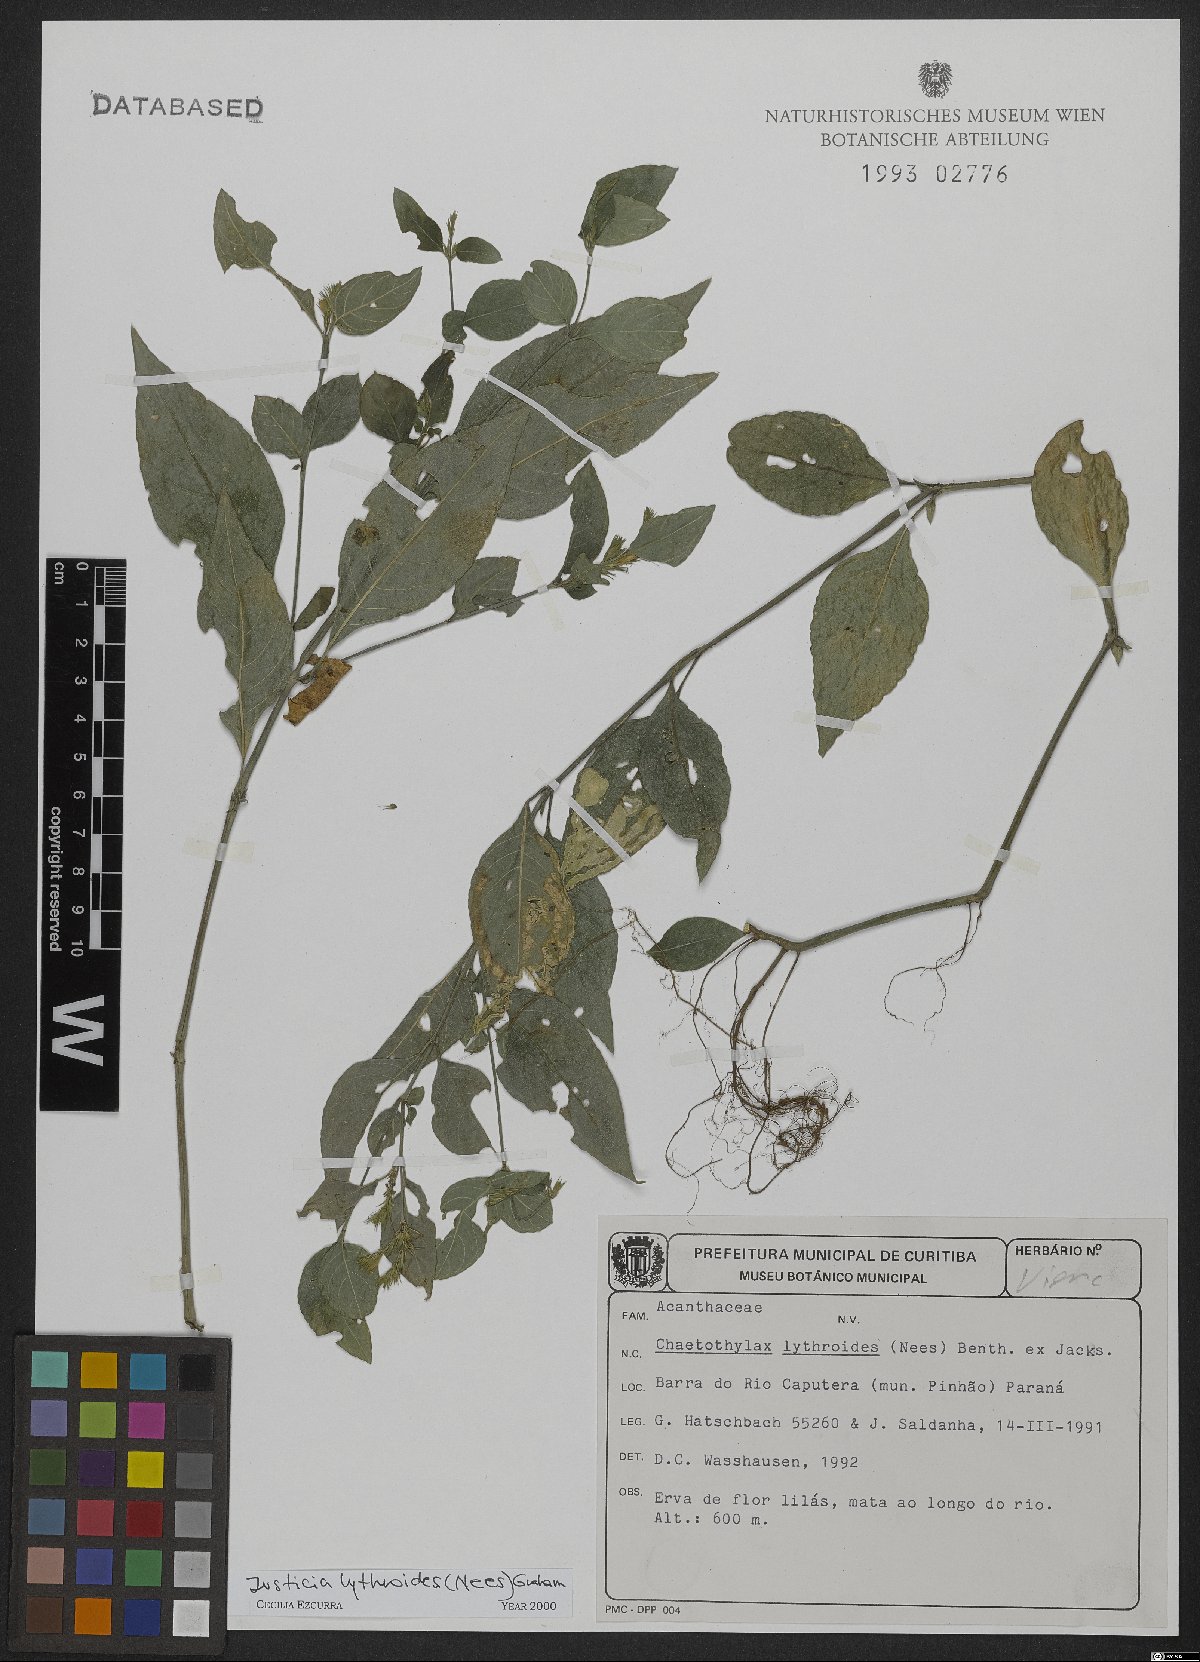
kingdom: Plantae
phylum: Tracheophyta
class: Magnoliopsida
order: Lamiales
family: Acanthaceae
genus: Justicia
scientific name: Justicia lythroides
